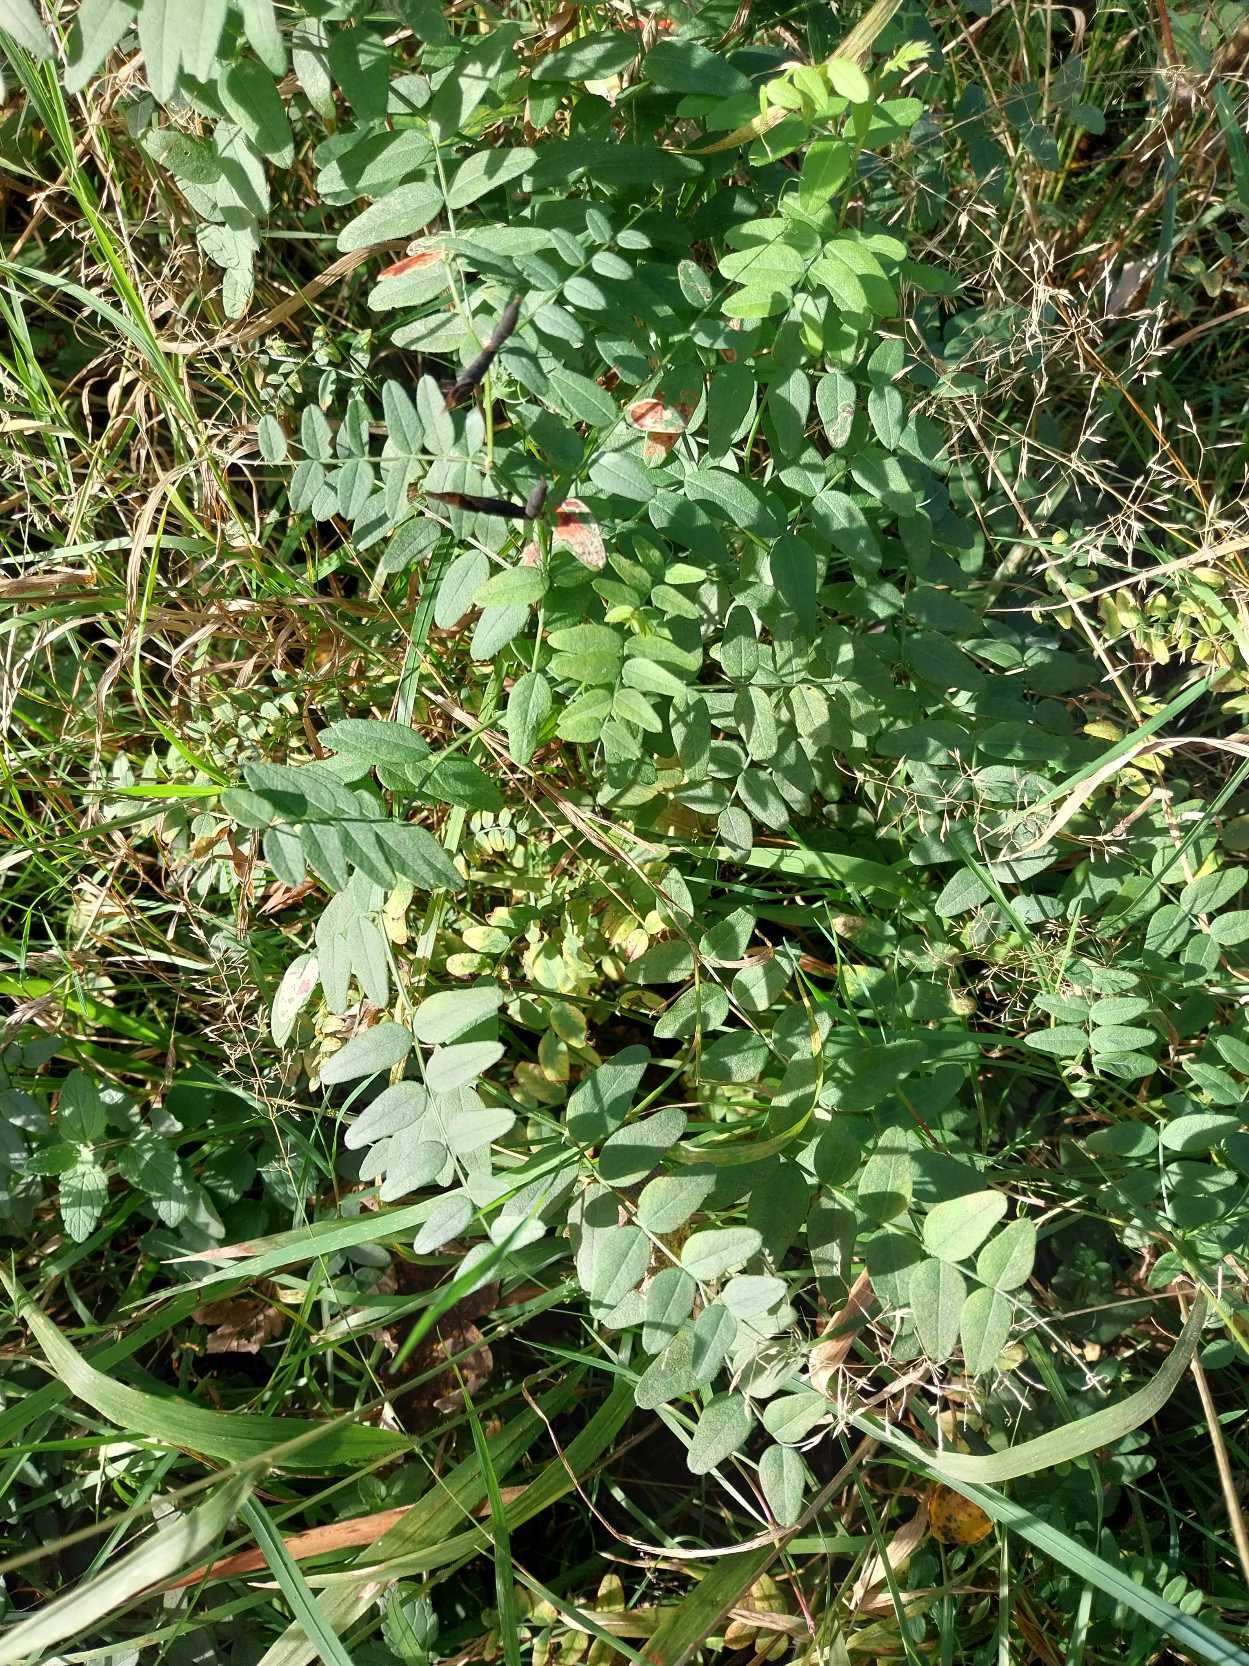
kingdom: Plantae
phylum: Tracheophyta
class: Magnoliopsida
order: Fabales
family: Fabaceae
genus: Vicia
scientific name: Vicia sepium
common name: Gærde-vikke
